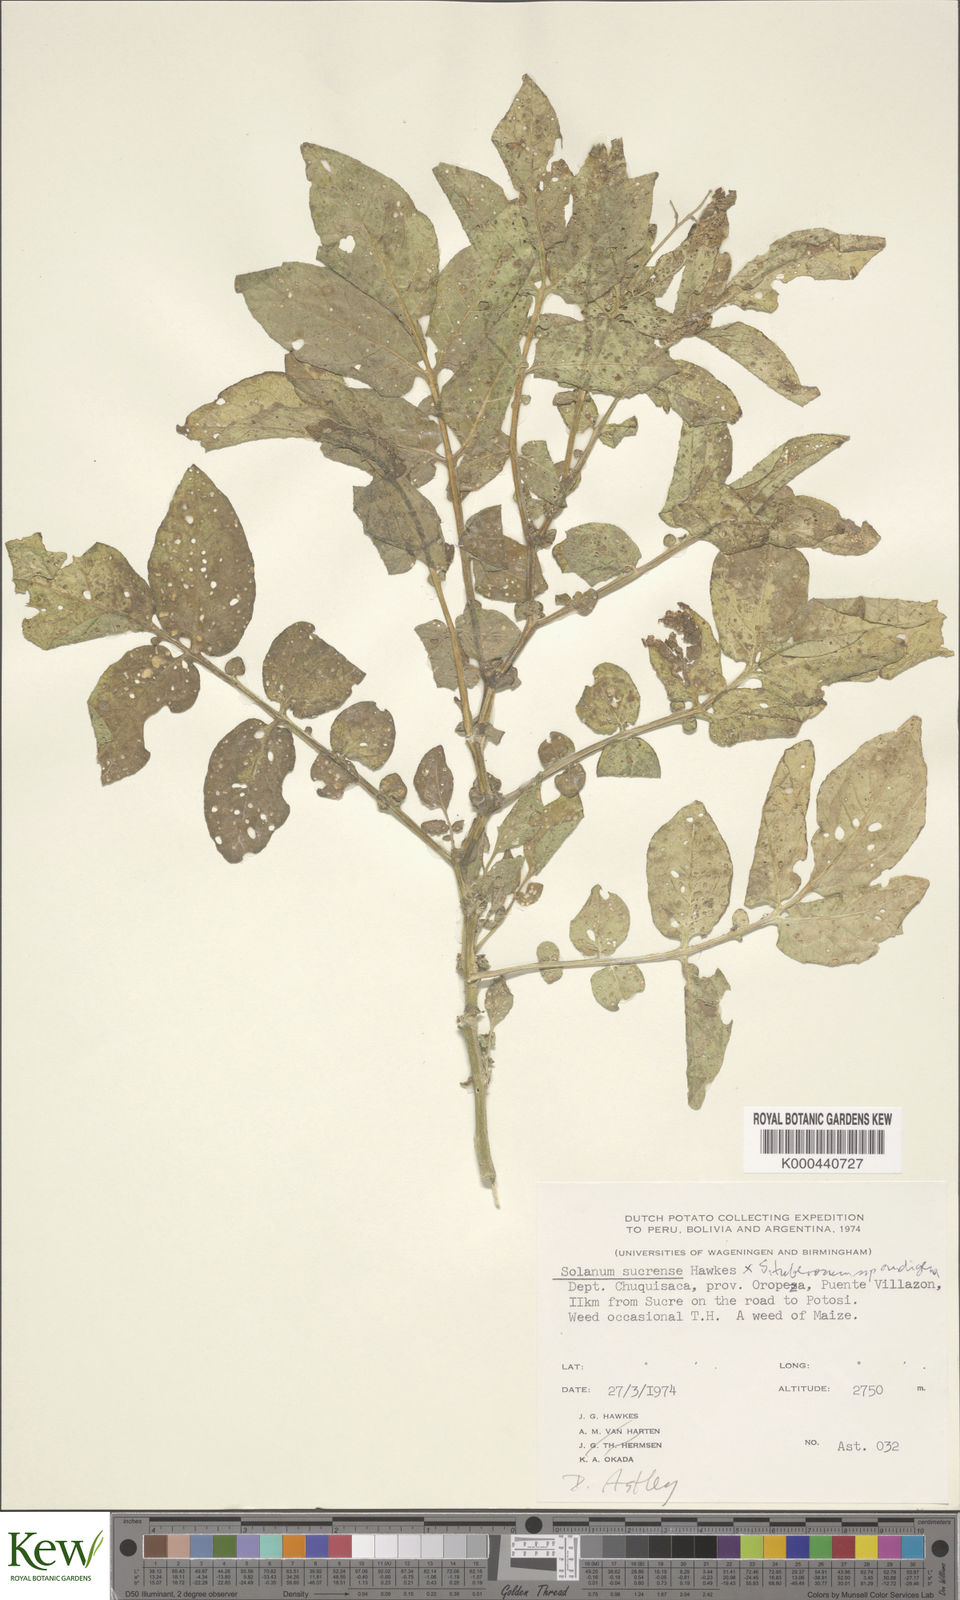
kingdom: Plantae
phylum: Tracheophyta
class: Magnoliopsida
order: Solanales
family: Solanaceae
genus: Solanum
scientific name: Solanum brevicaule
